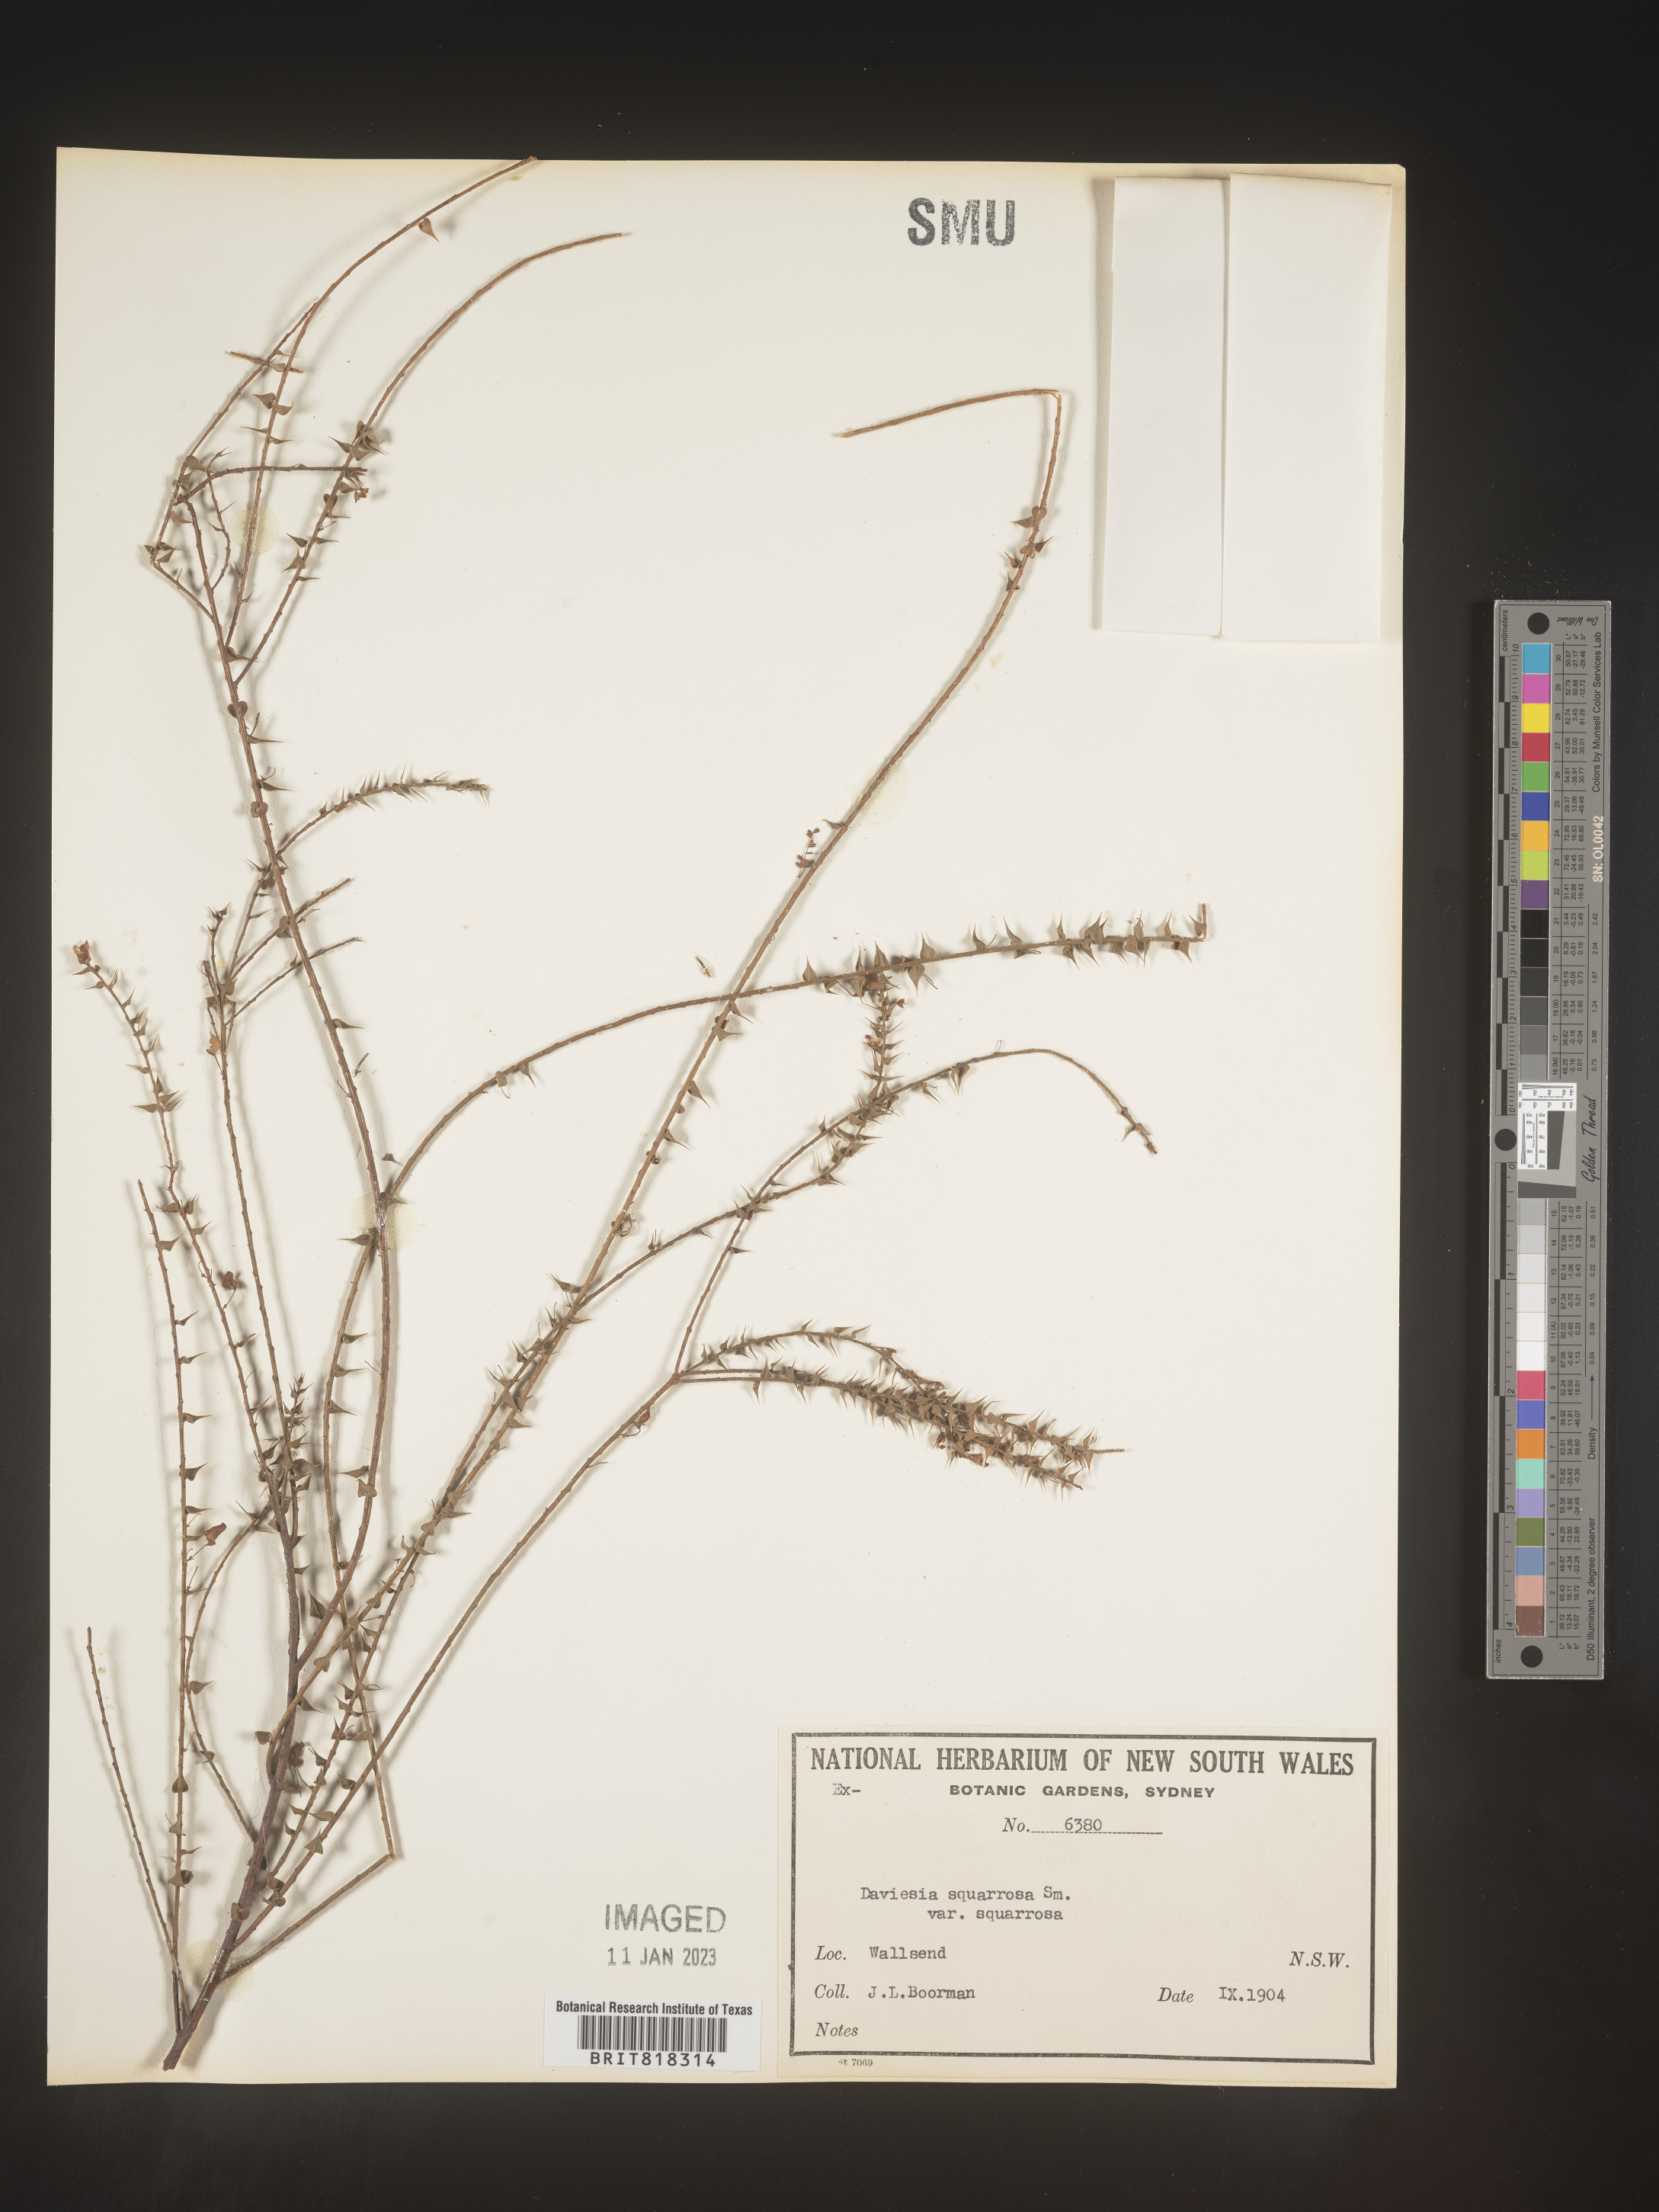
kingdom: Plantae
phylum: Tracheophyta
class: Magnoliopsida
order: Fabales
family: Fabaceae
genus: Daviesia
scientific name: Daviesia
